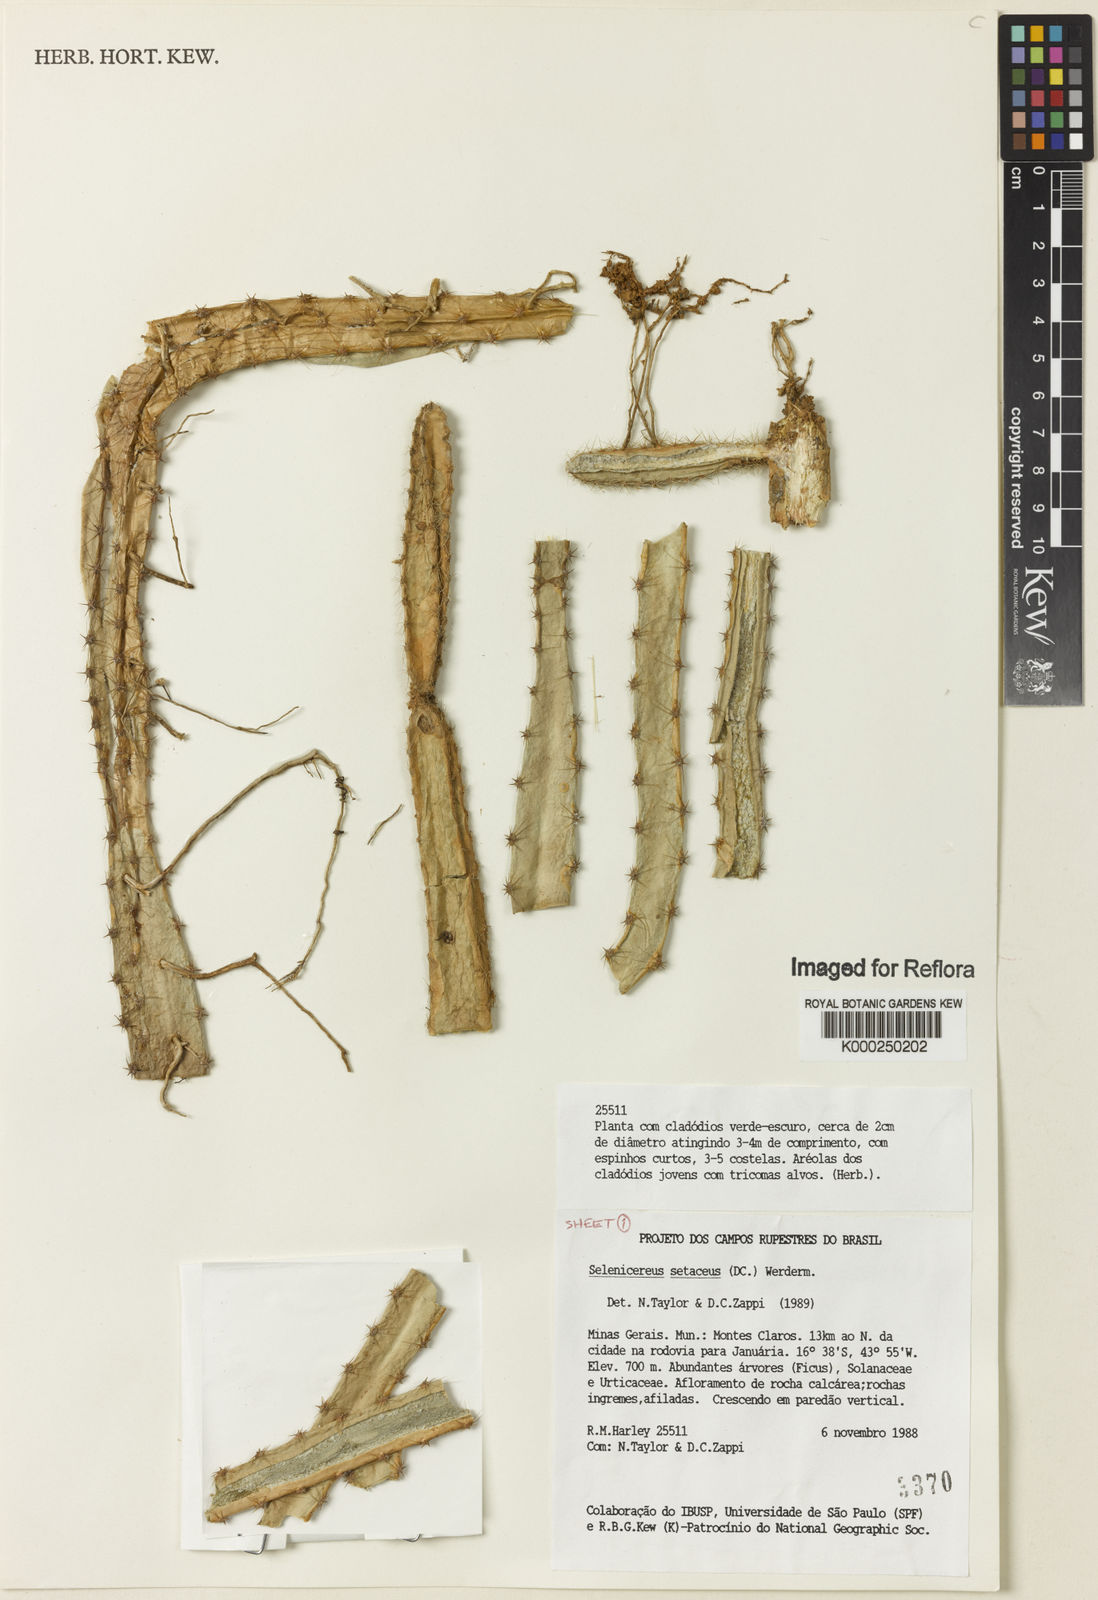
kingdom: Plantae
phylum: Tracheophyta
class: Magnoliopsida
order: Caryophyllales
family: Cactaceae
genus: Selenicereus
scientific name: Selenicereus
